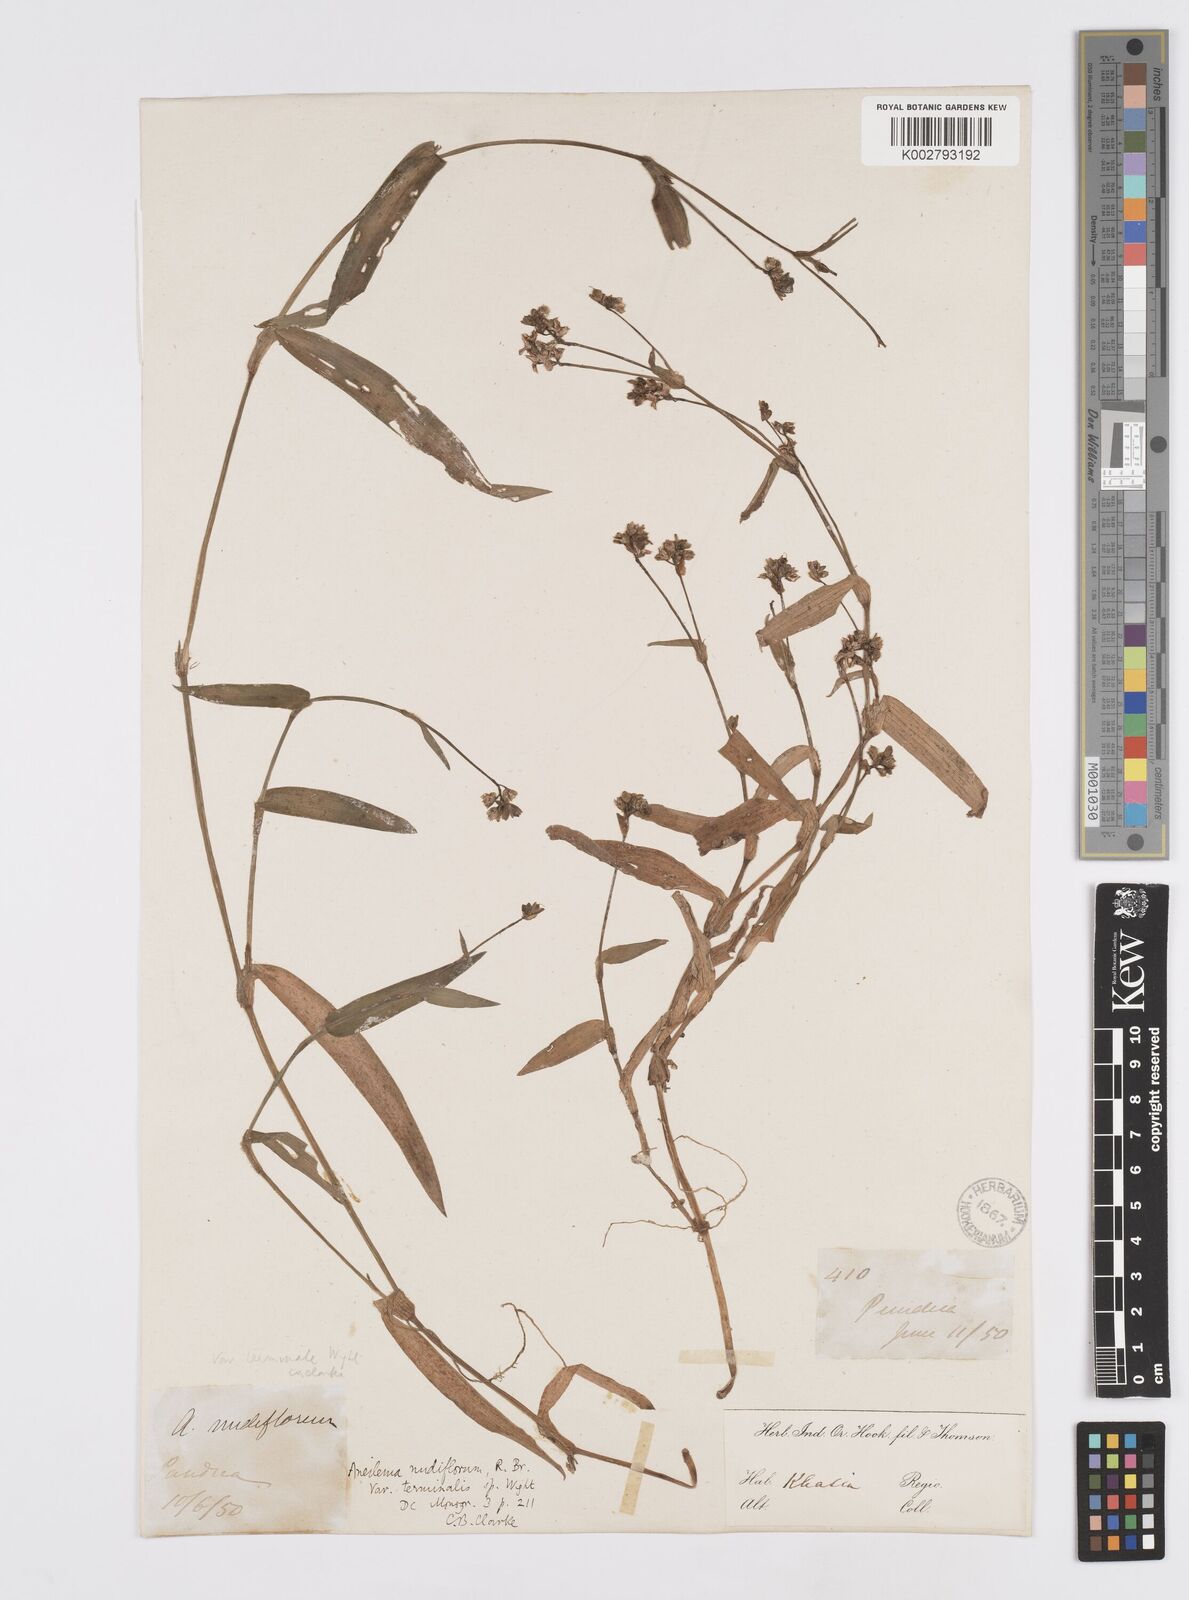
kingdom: Plantae
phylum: Tracheophyta
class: Liliopsida
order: Commelinales
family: Commelinaceae
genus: Murdannia
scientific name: Murdannia nudiflora
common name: Nakedstem dewflower
